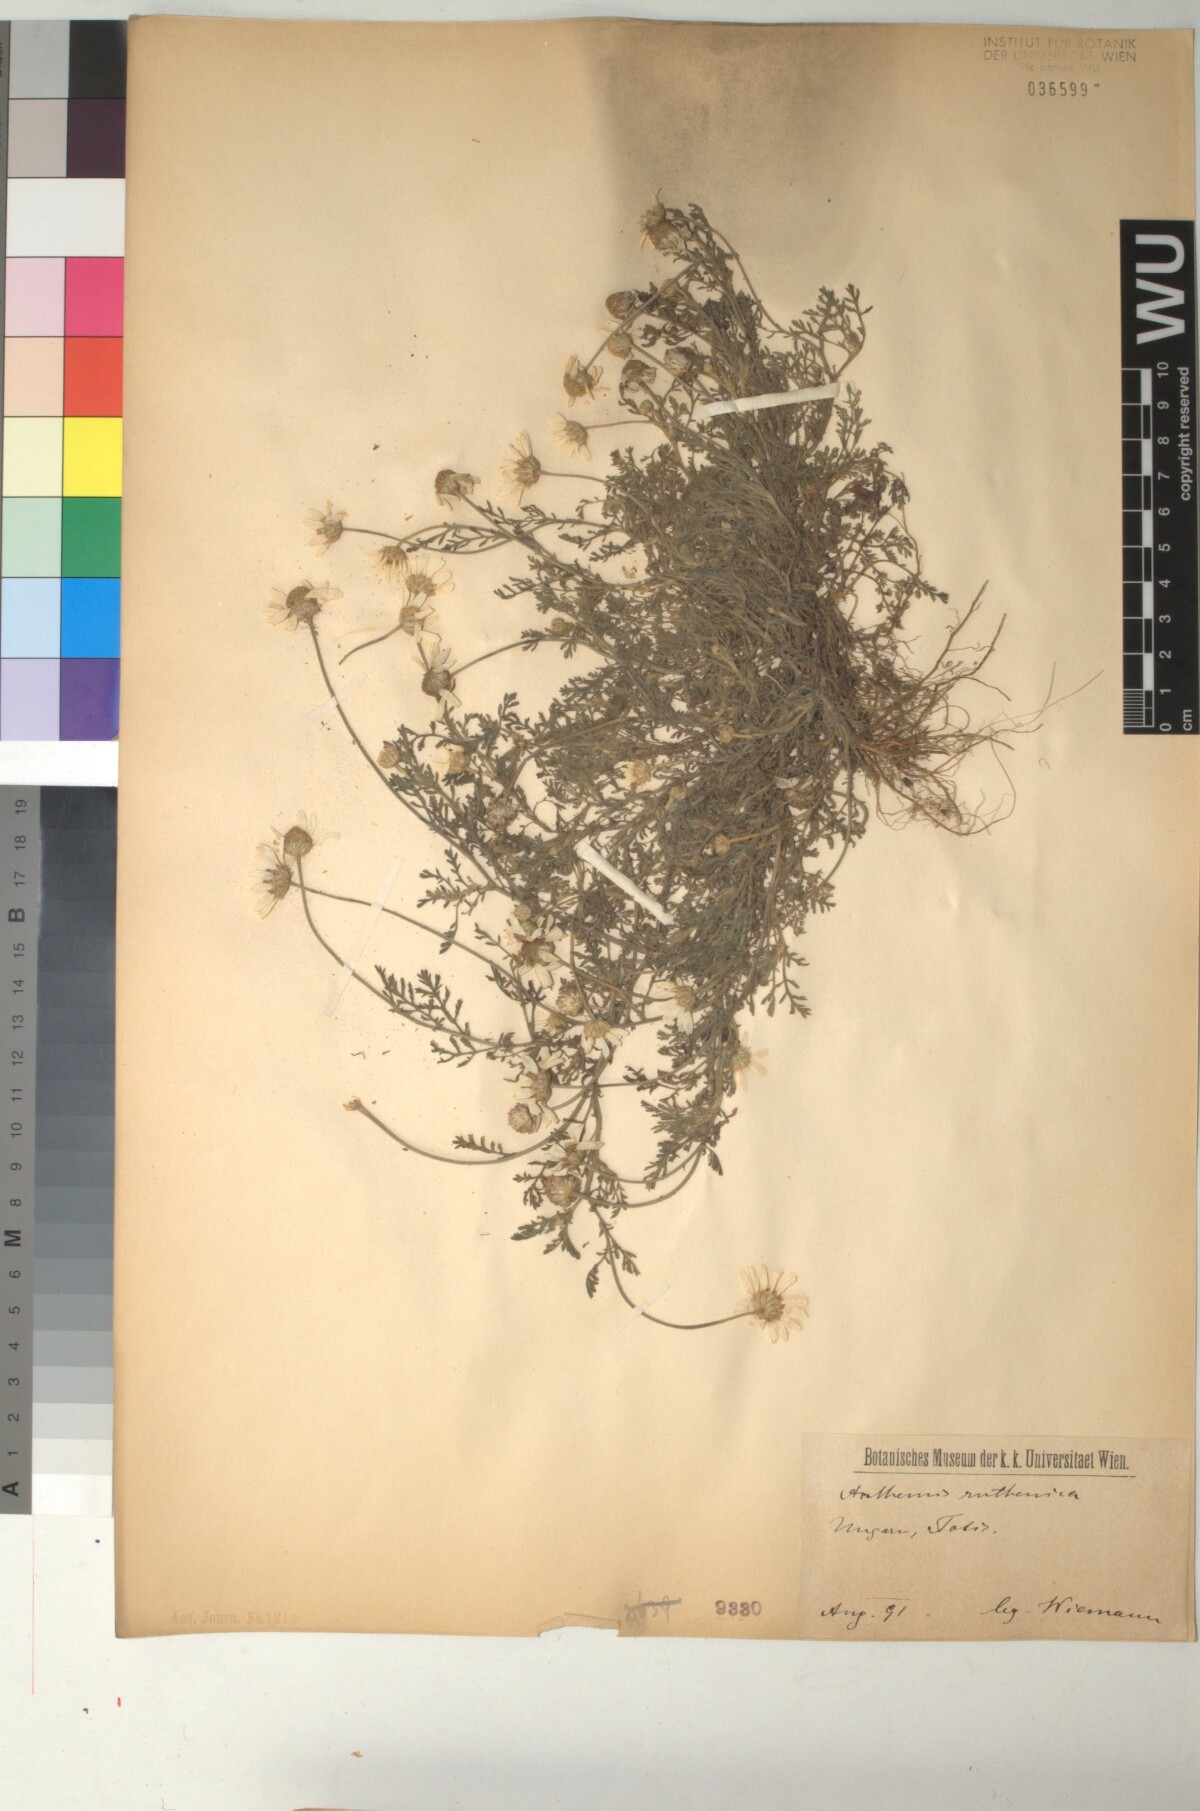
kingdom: Plantae
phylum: Tracheophyta
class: Magnoliopsida
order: Asterales
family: Asteraceae
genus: Anthemis
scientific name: Anthemis ruthenica
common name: Eastern chamomile
